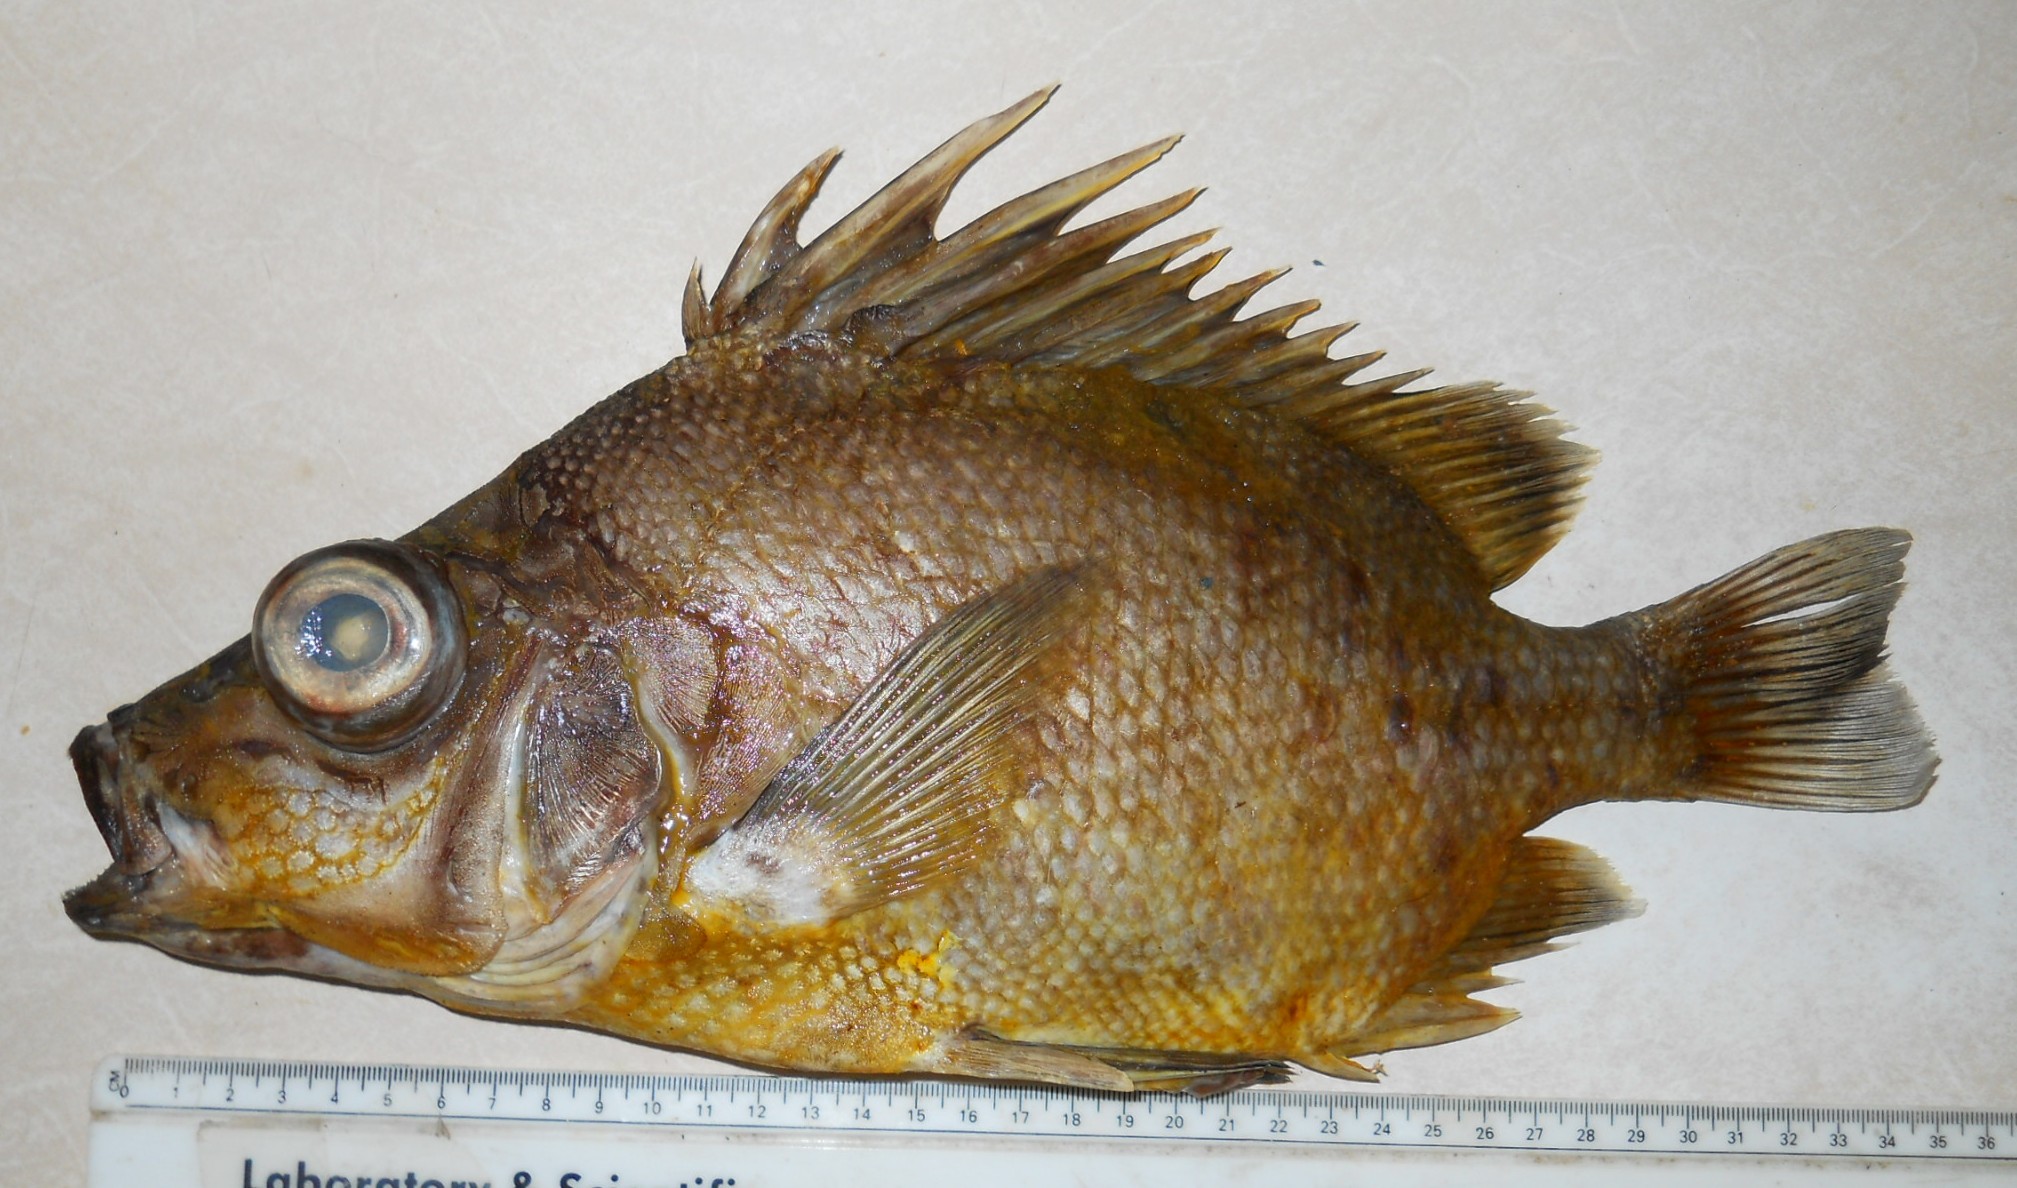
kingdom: Animalia
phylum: Chordata
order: Perciformes
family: Pentacerotidae
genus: Pentaceros
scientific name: Pentaceros capensis
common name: Cape armourhead
